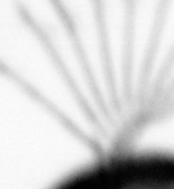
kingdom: Chromista
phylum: Ochrophyta
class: Bacillariophyceae
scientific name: Bacillariophyceae
